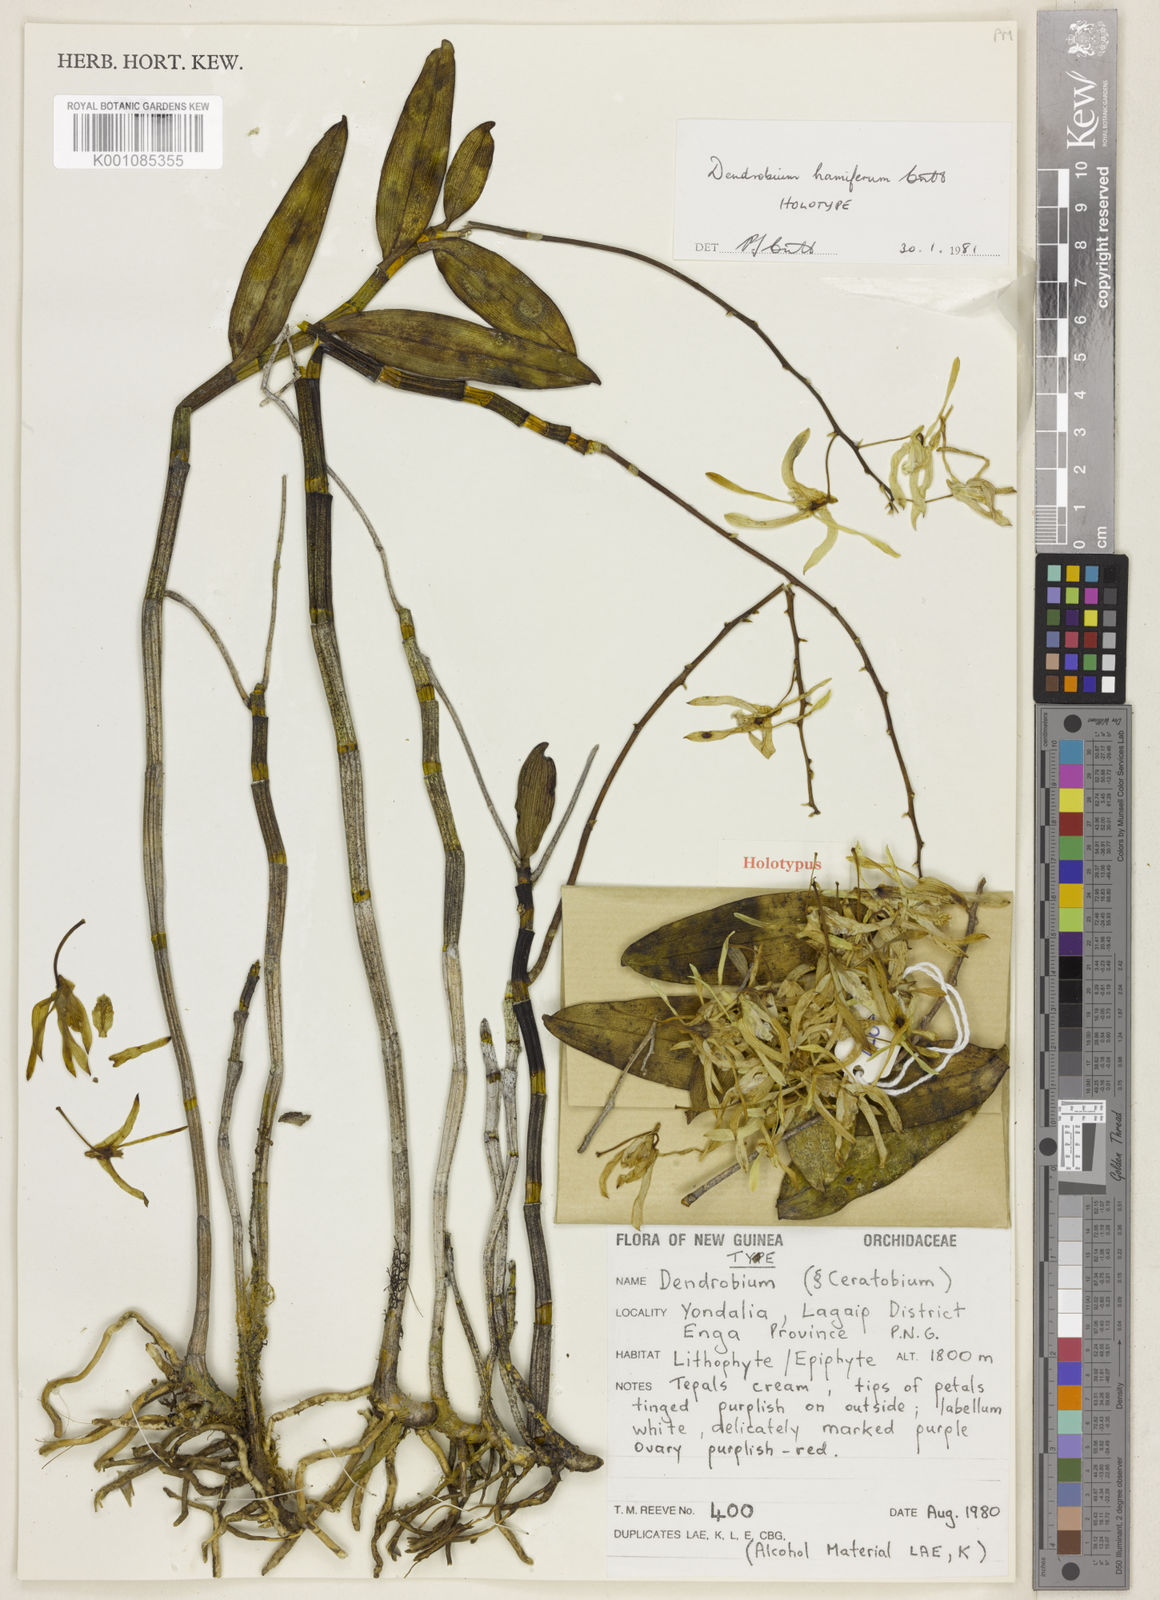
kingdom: Plantae
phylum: Tracheophyta
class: Liliopsida
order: Asparagales
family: Orchidaceae
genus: Dendrobium
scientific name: Dendrobium hamiferum
